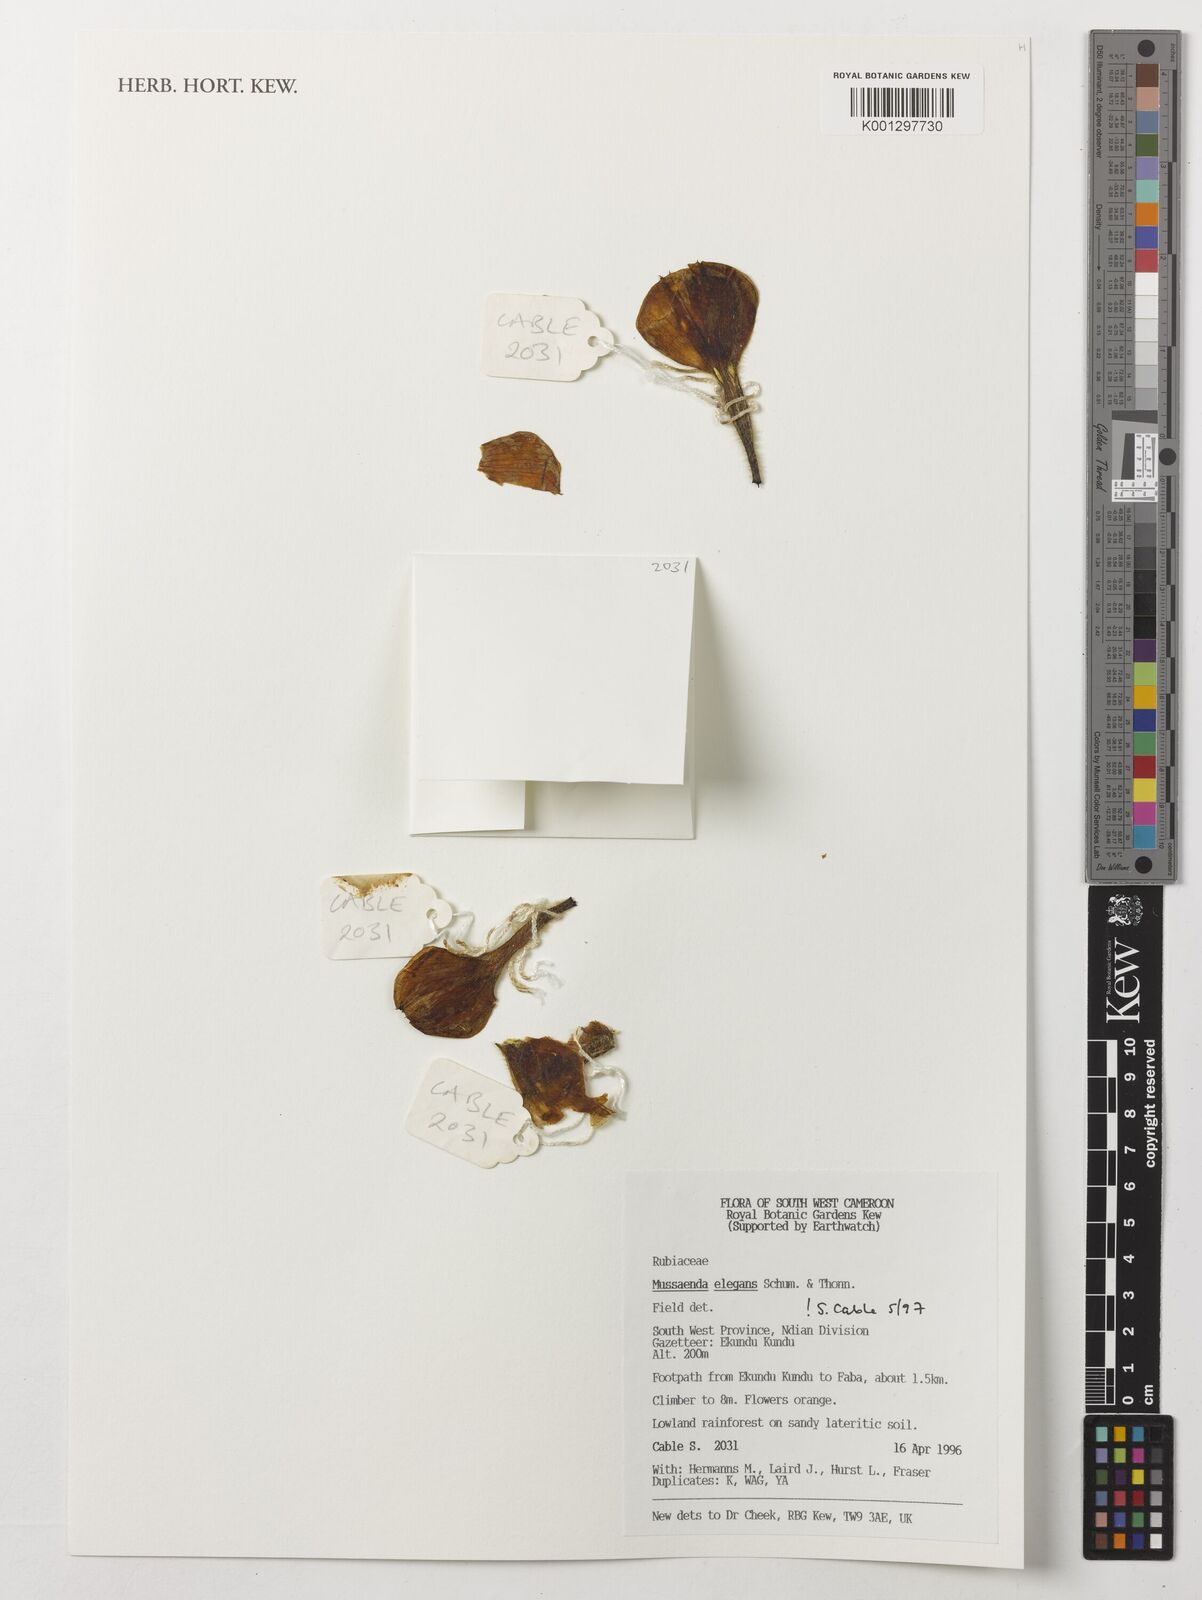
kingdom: Plantae
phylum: Tracheophyta
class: Magnoliopsida
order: Gentianales
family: Rubiaceae
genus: Mussaenda
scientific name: Mussaenda elegans
